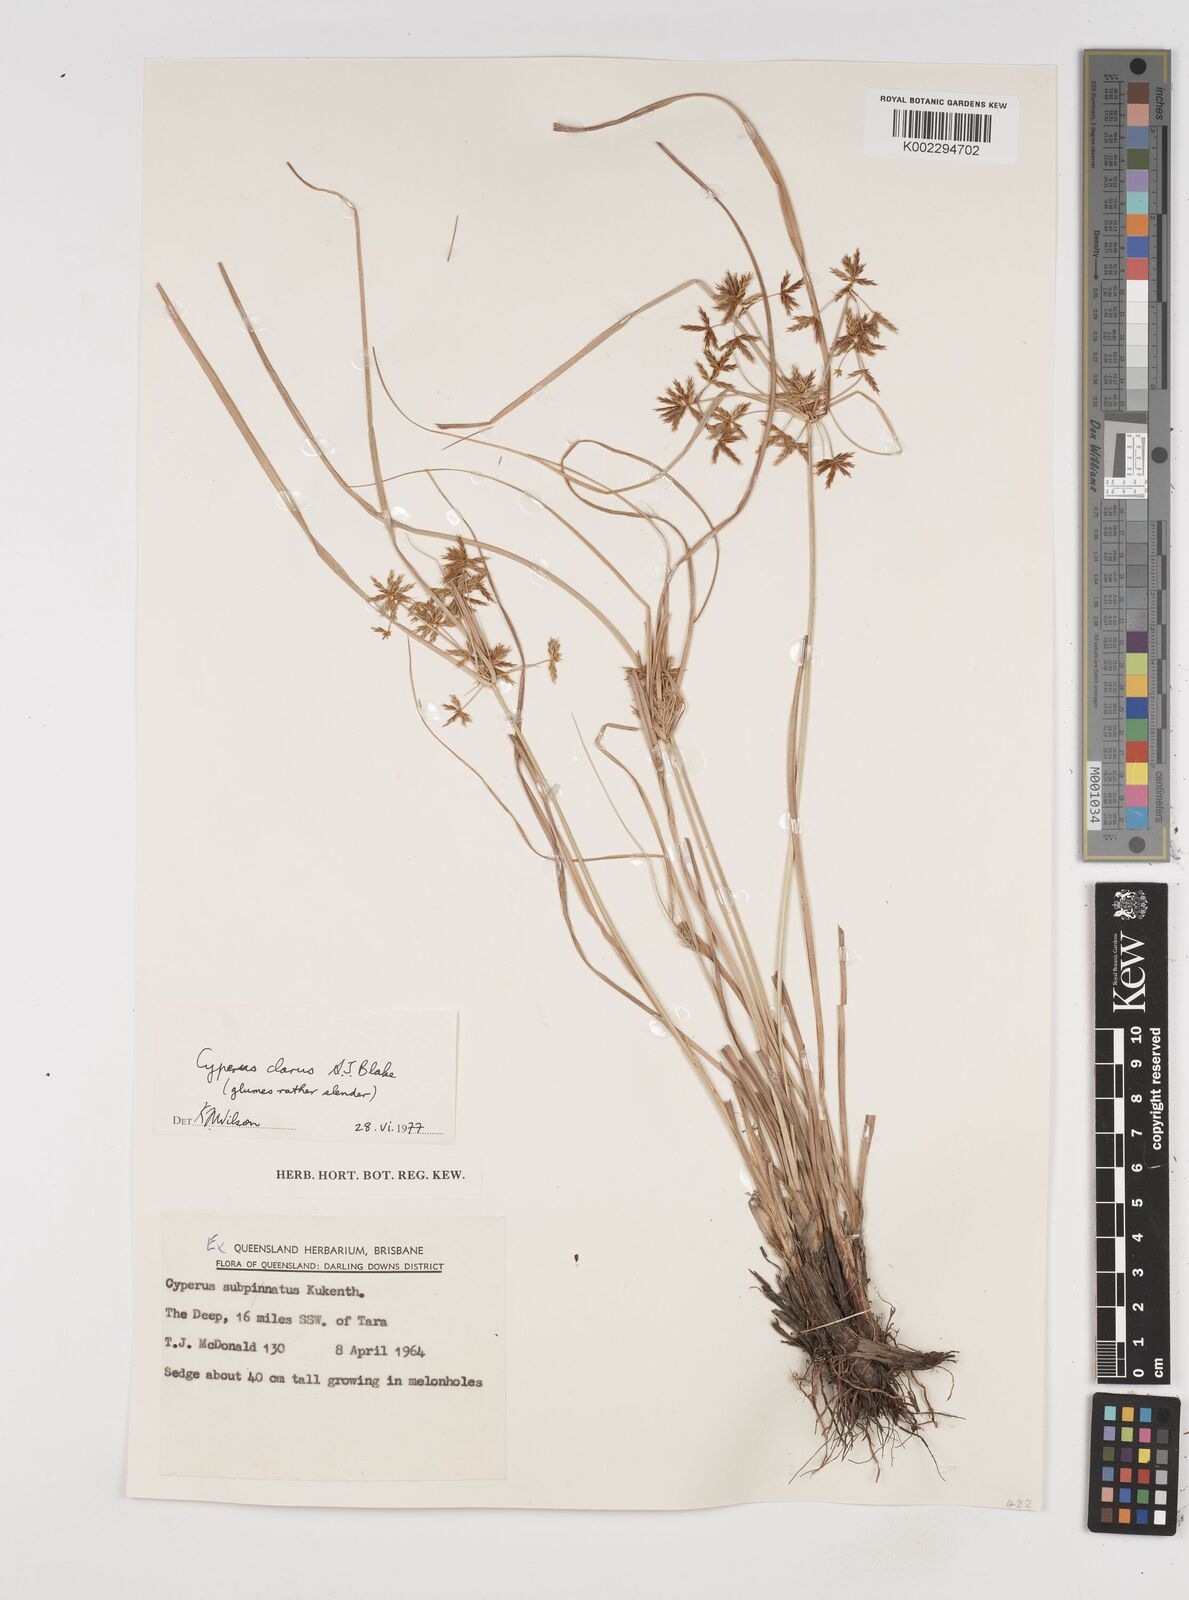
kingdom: Plantae
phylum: Tracheophyta
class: Liliopsida
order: Poales
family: Cyperaceae
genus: Cyperus
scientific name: Cyperus clarus
